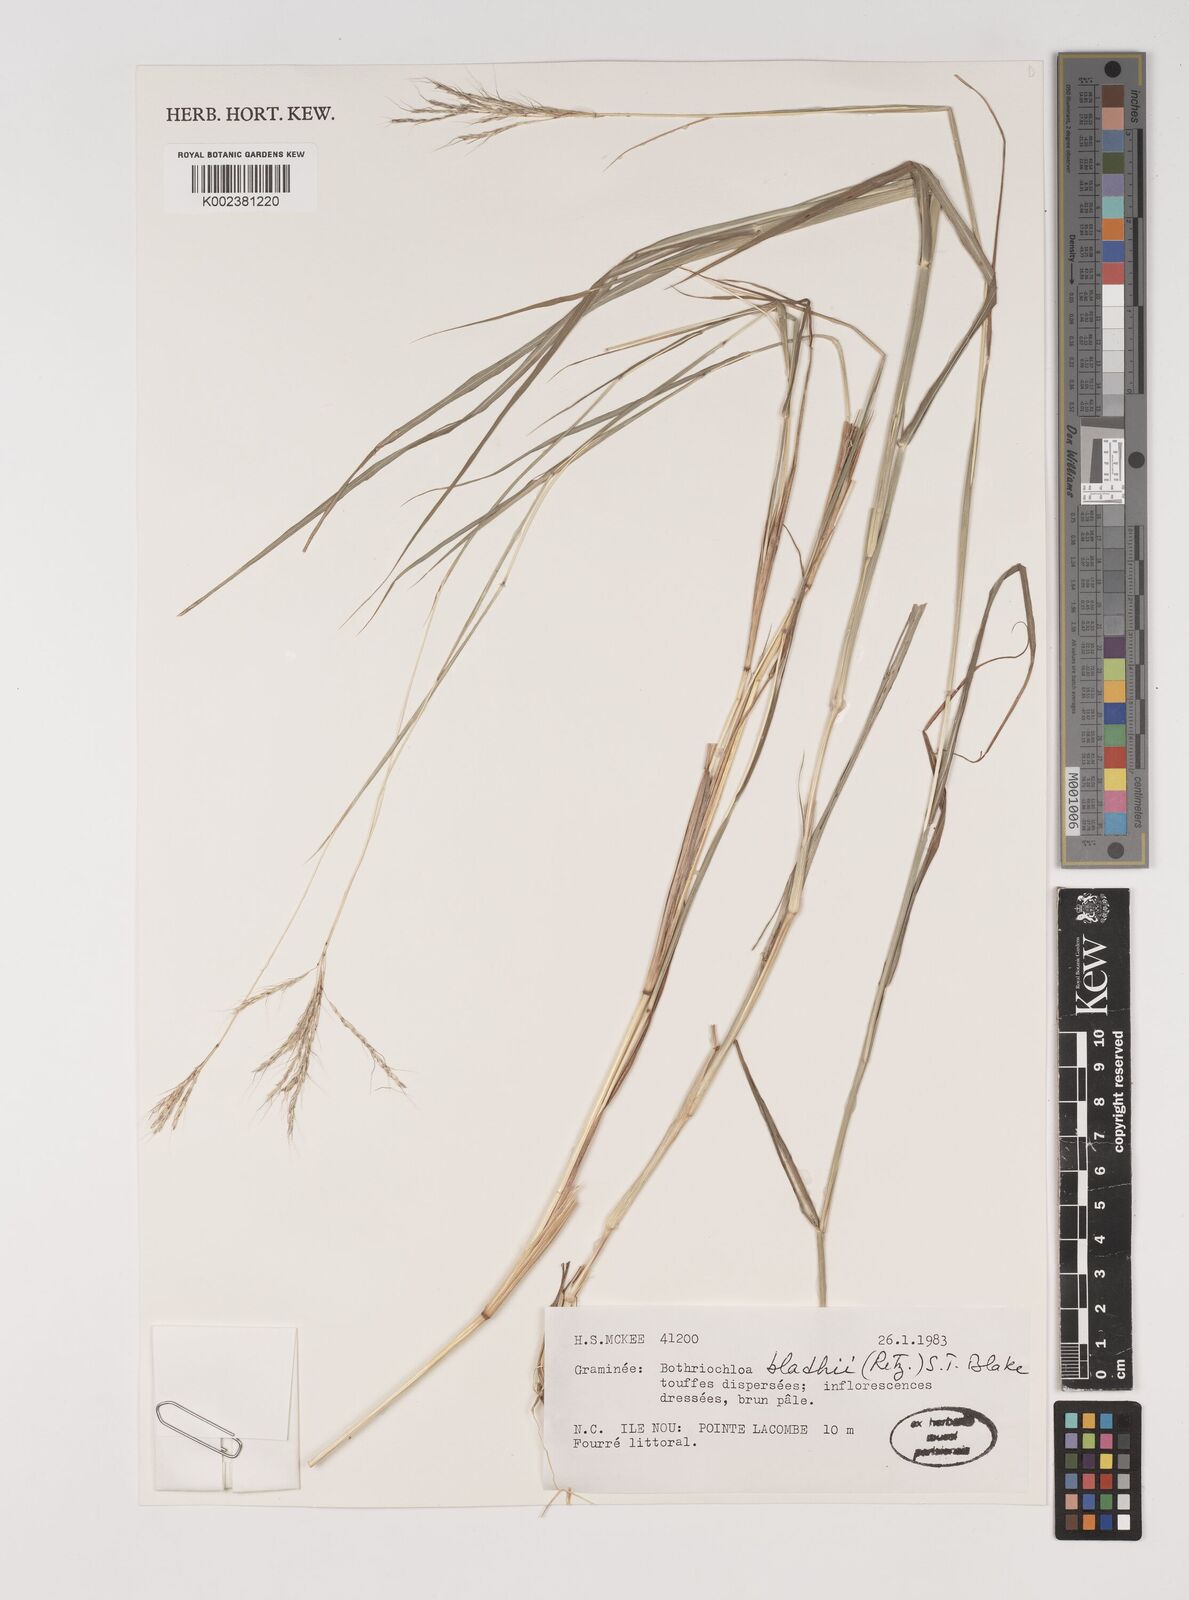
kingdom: Plantae
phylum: Tracheophyta
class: Liliopsida
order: Poales
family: Poaceae
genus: Bothriochloa
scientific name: Bothriochloa bladhii
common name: Caucasian bluestem
